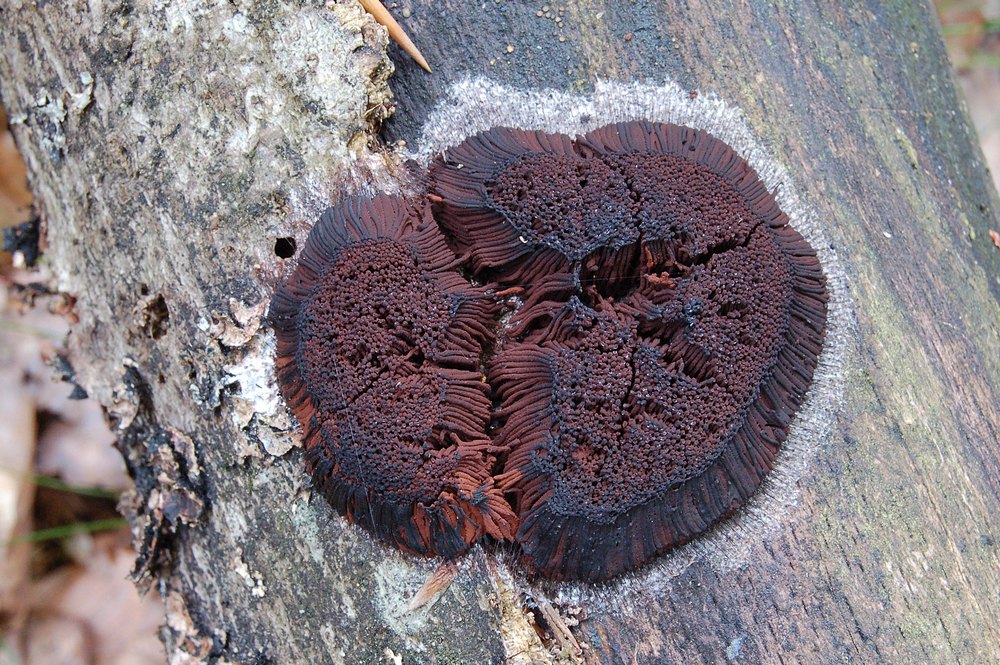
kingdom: Protozoa
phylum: Mycetozoa
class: Myxomycetes
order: Stemonitidales
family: Stemonitidaceae
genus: Symphytocarpus
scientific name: Symphytocarpus flaccidus
